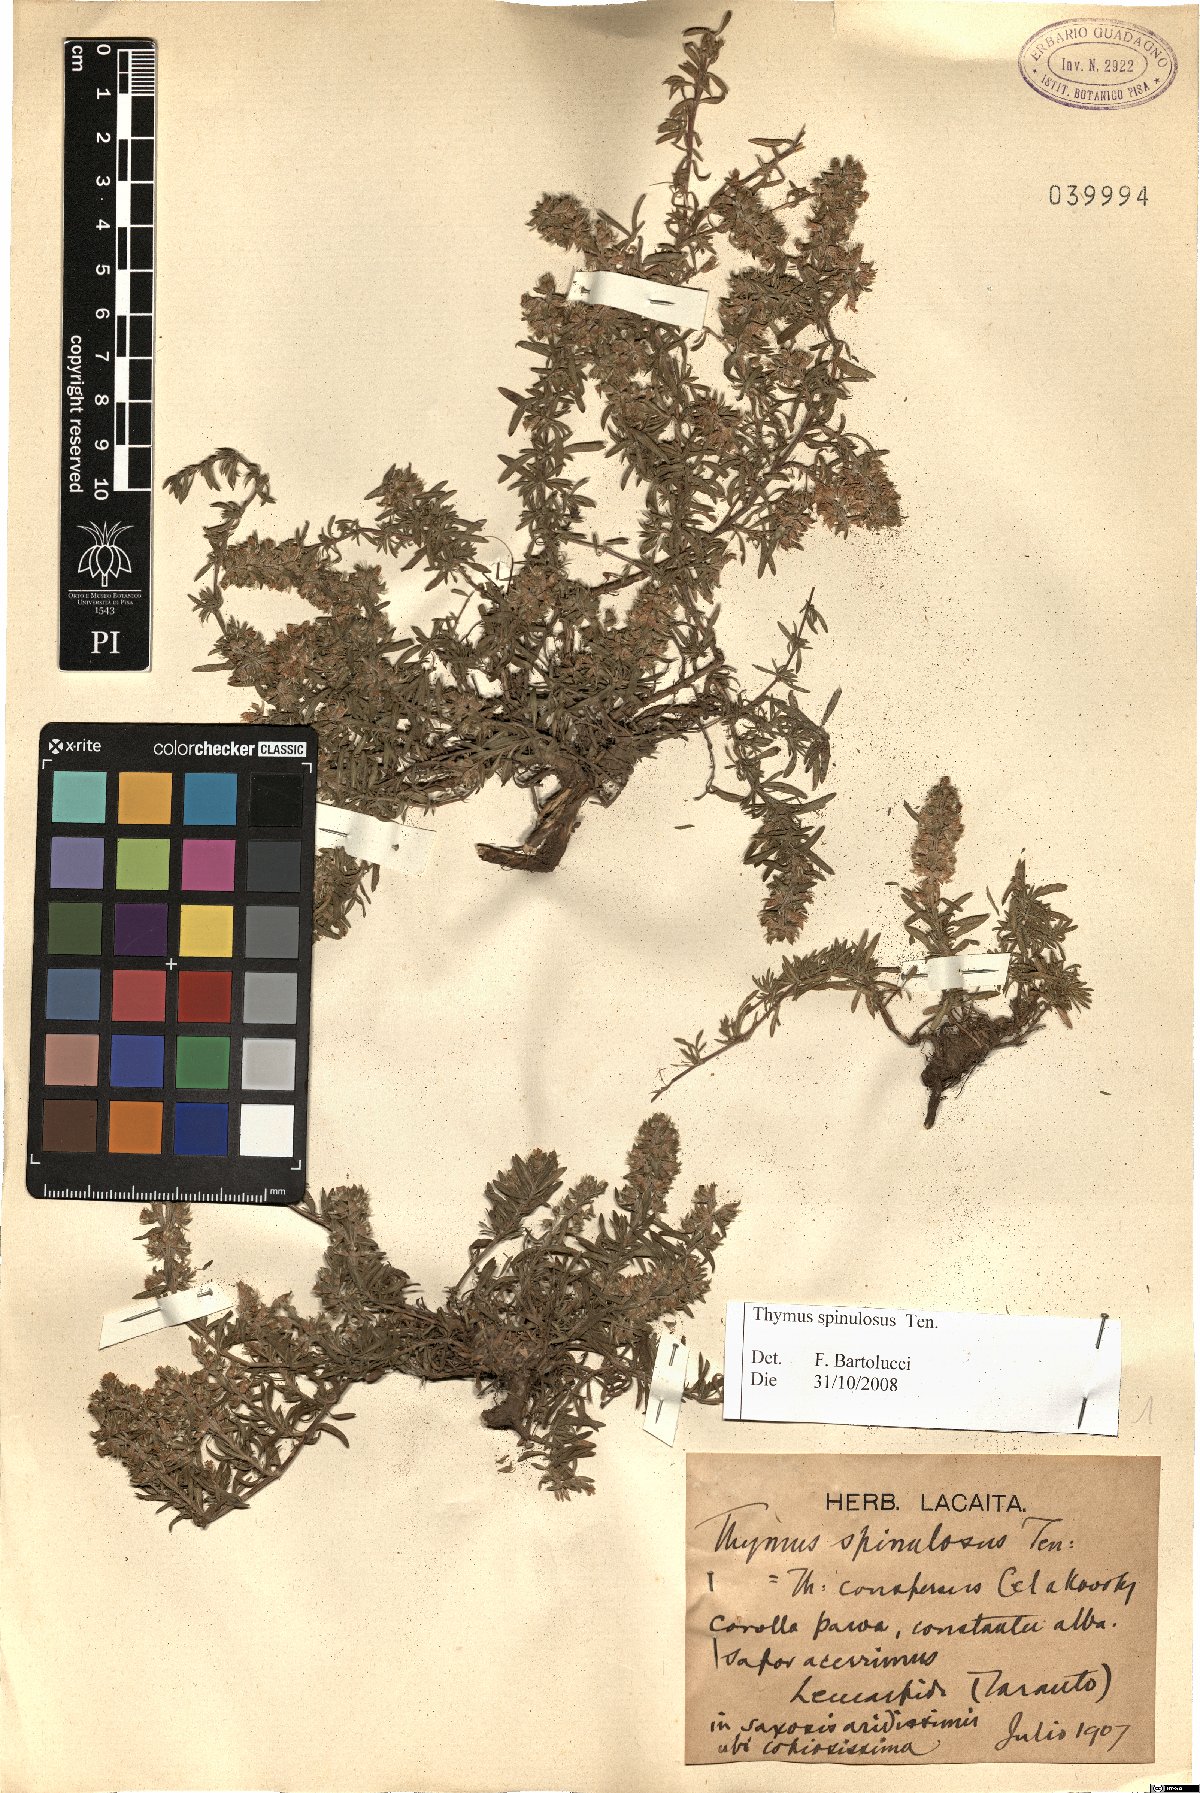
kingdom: Plantae
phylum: Tracheophyta
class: Magnoliopsida
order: Lamiales
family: Lamiaceae
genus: Thymus
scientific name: Thymus spinulosus
